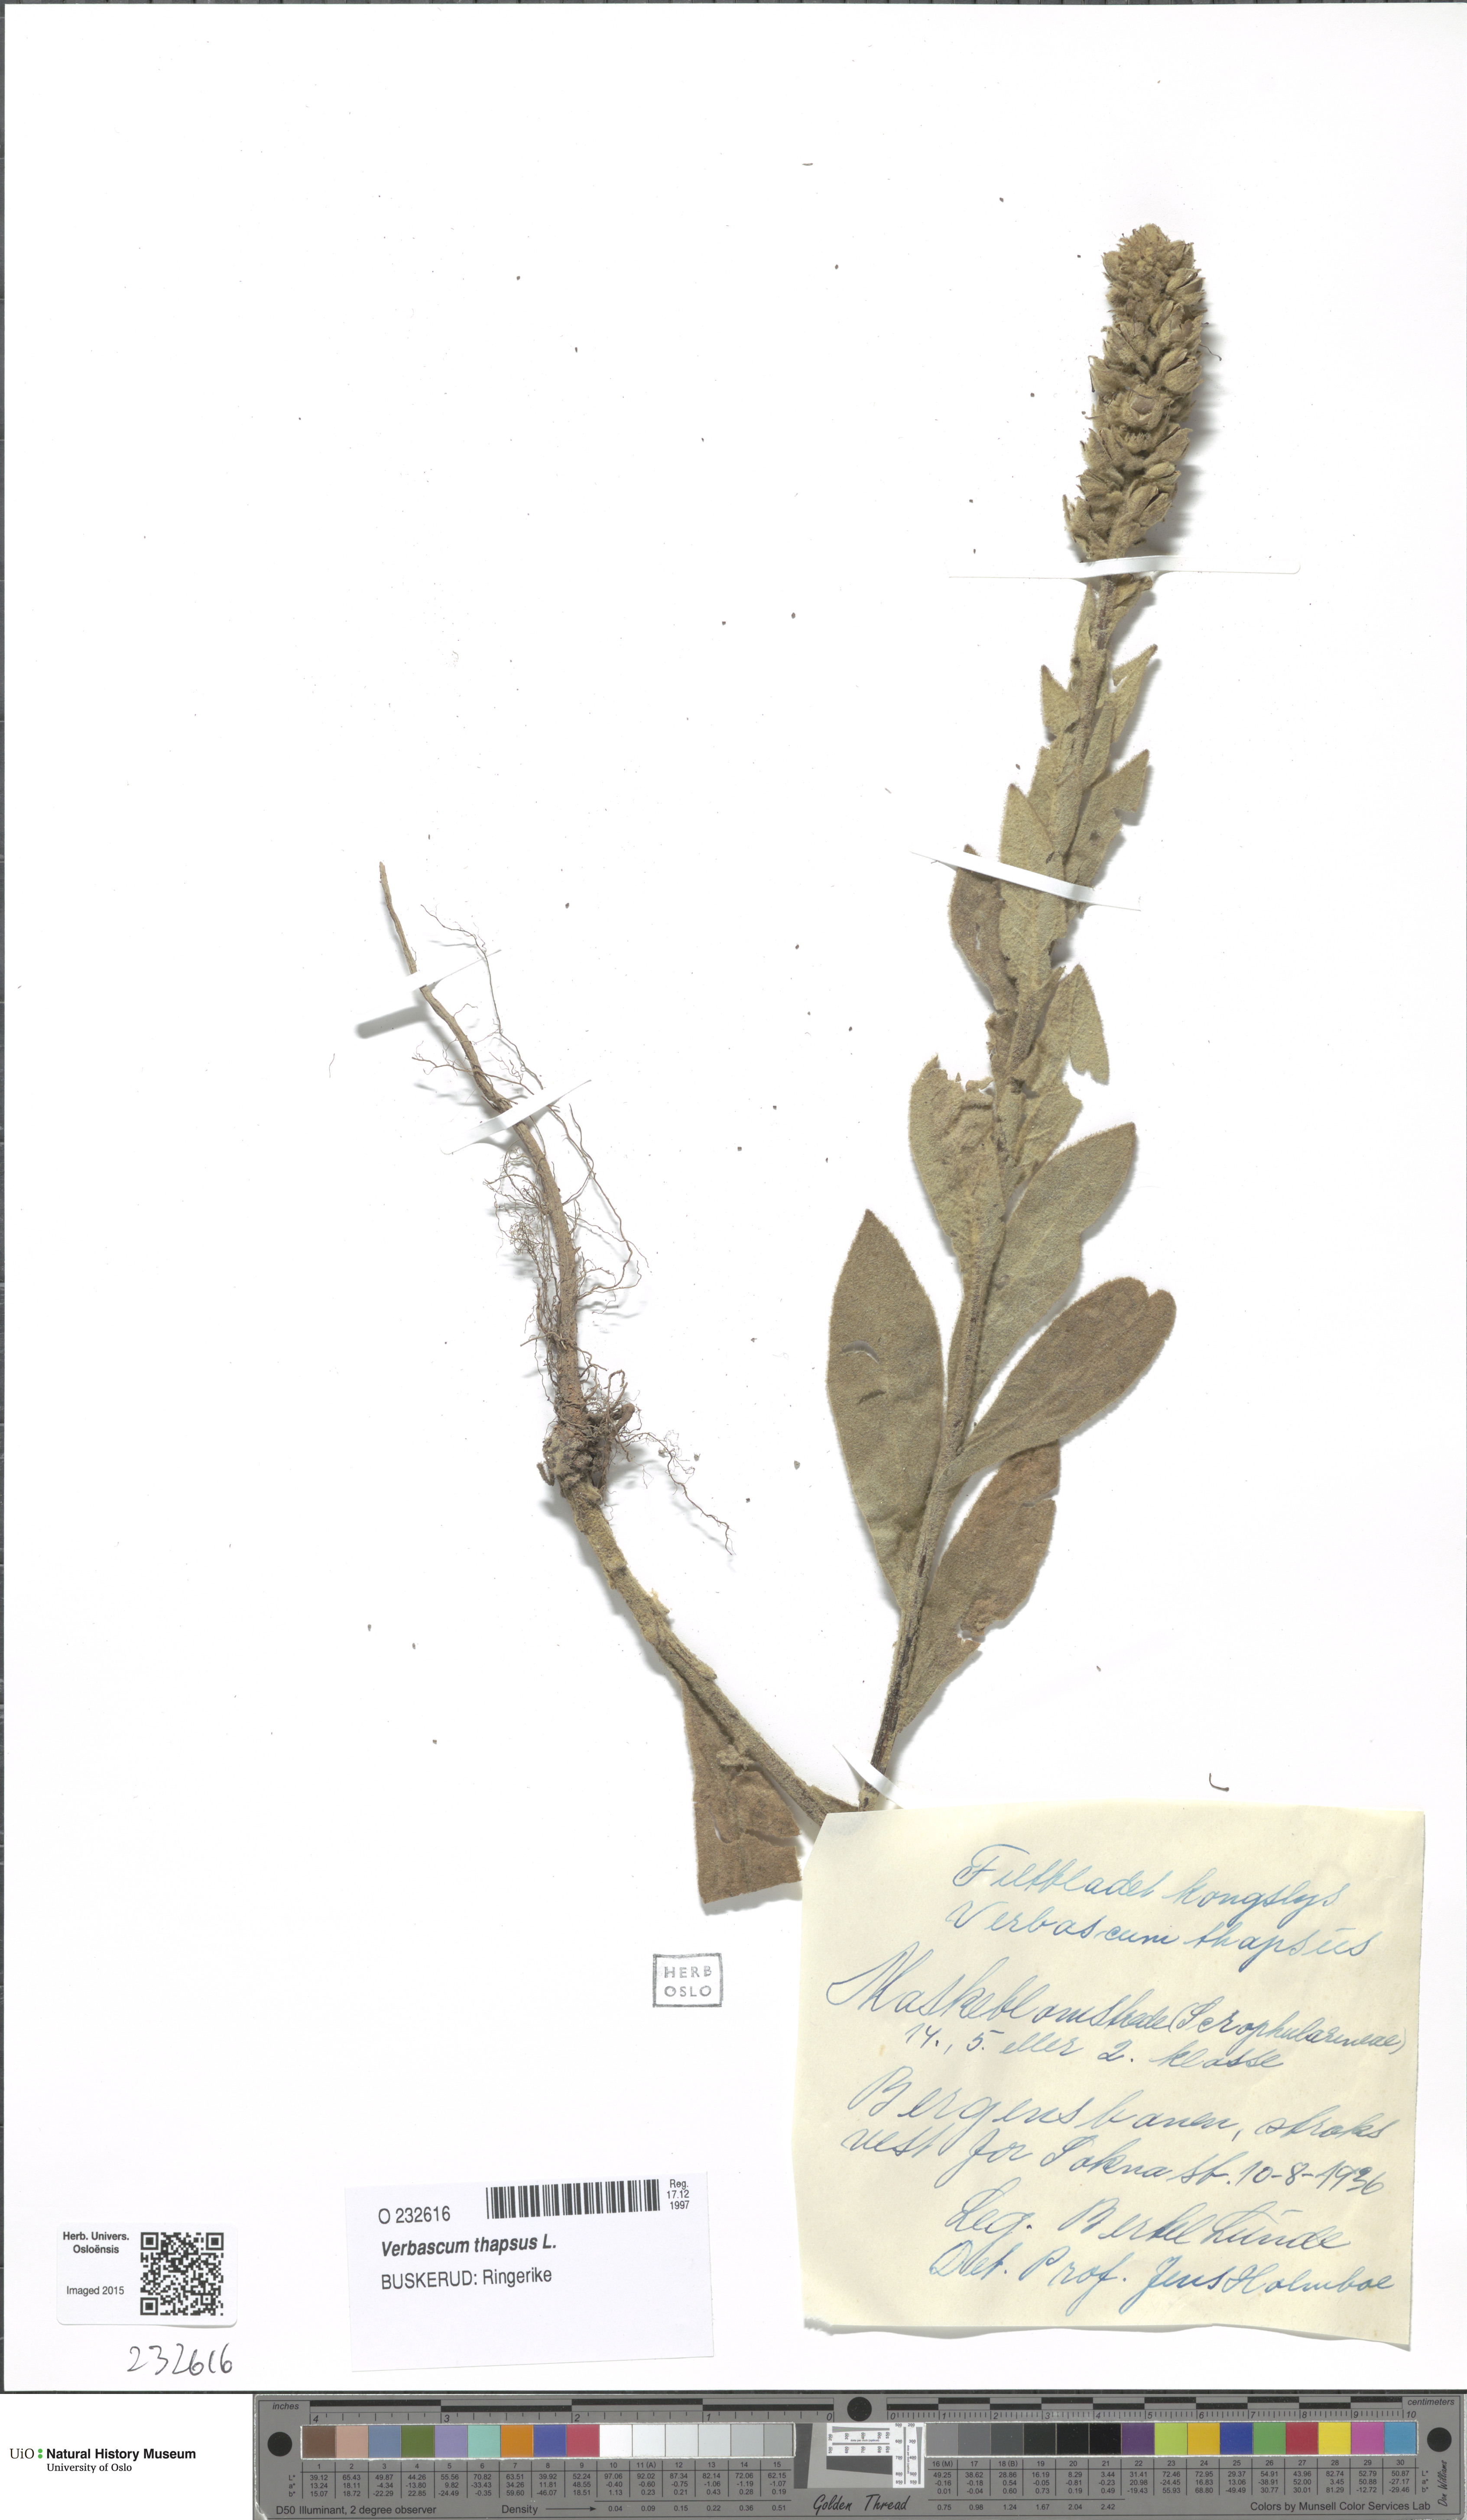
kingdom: Plantae
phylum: Tracheophyta
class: Magnoliopsida
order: Lamiales
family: Scrophulariaceae
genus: Verbascum
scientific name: Verbascum thapsus
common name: Common mullein
